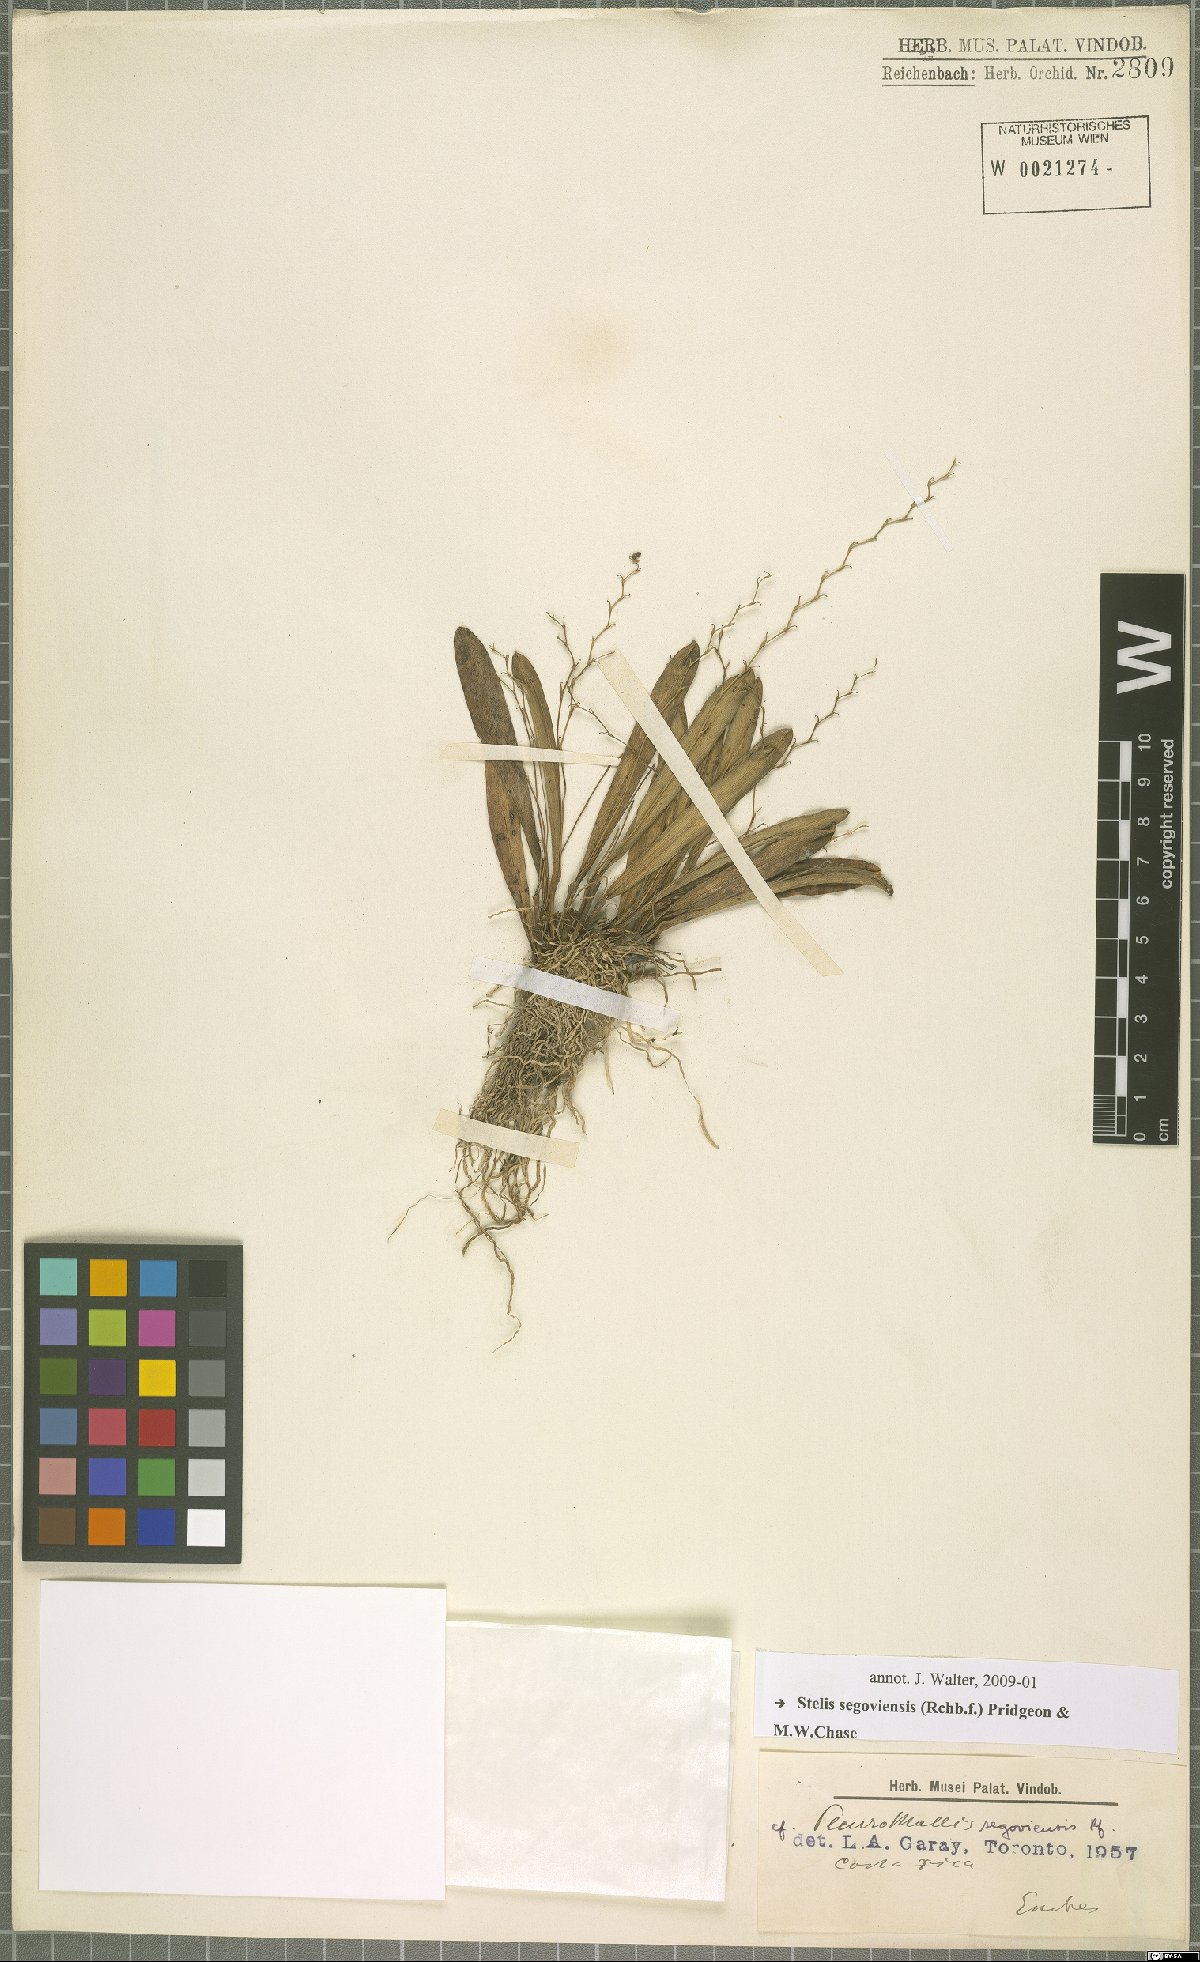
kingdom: Plantae
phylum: Tracheophyta
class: Liliopsida
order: Asparagales
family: Orchidaceae
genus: Stelis
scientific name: Stelis segoviensis
